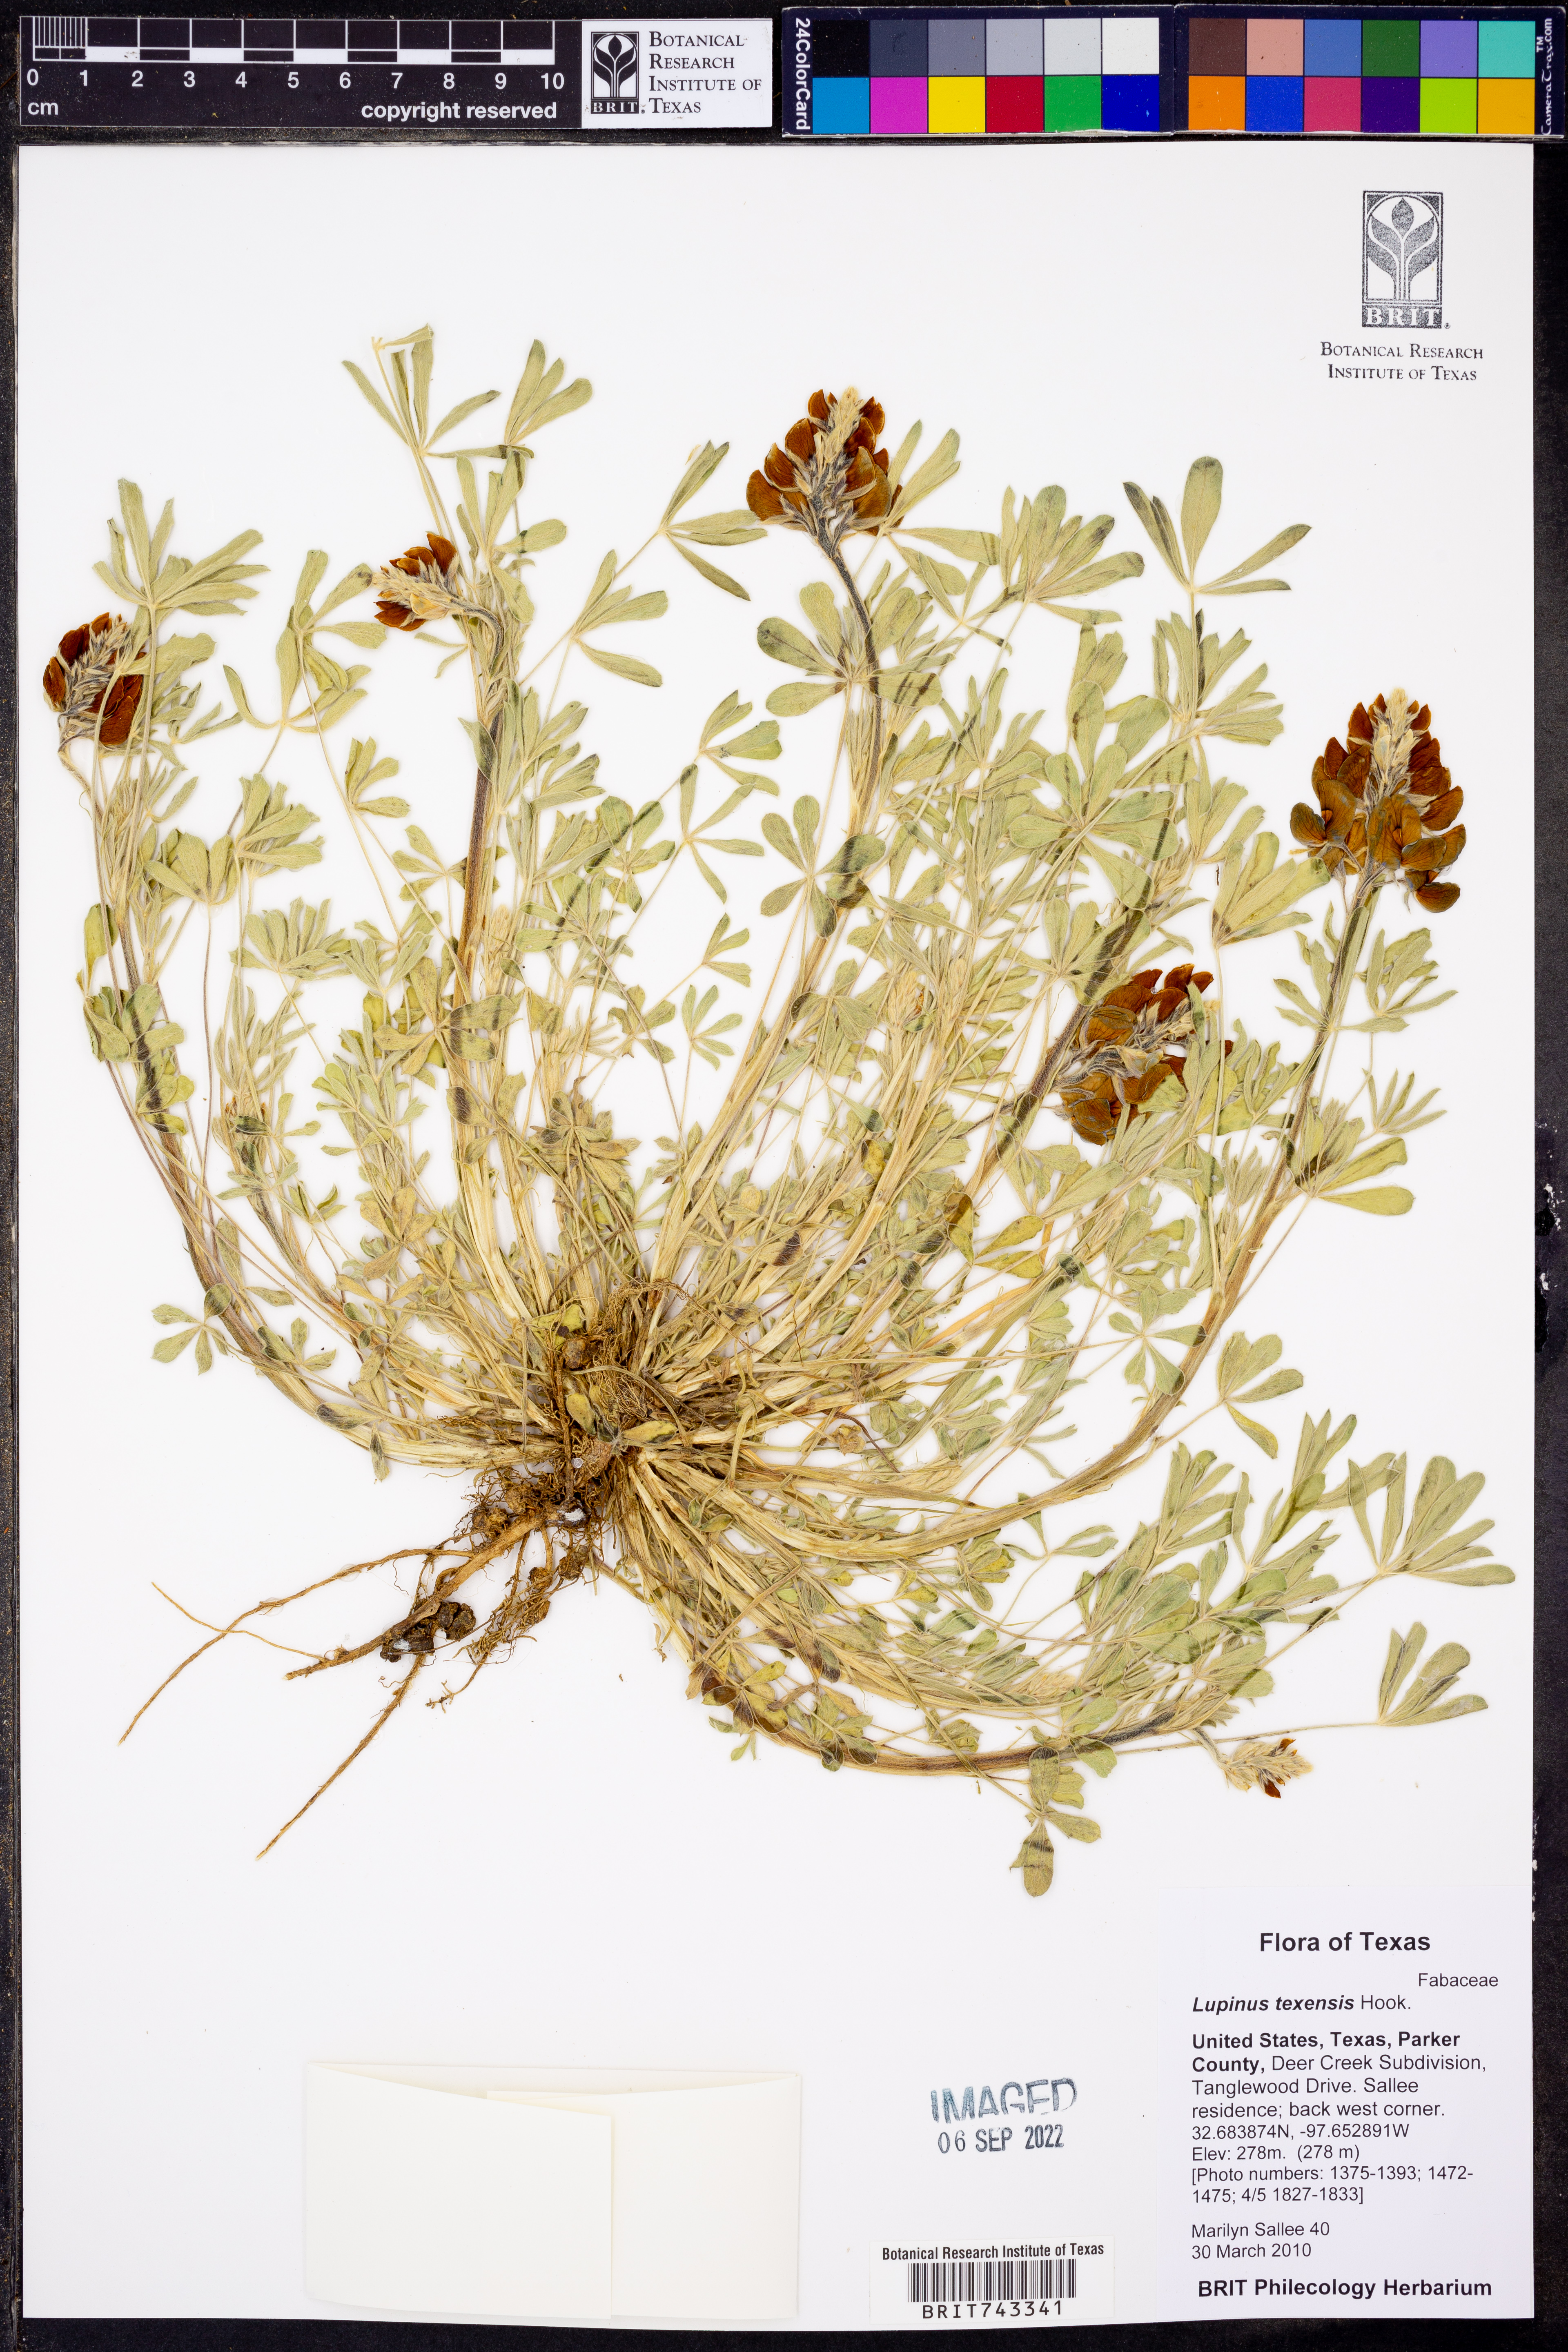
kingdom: Plantae
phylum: Tracheophyta
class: Magnoliopsida
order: Fabales
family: Fabaceae
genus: Lupinus
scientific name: Lupinus texensis
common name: Texas bluebonnet
